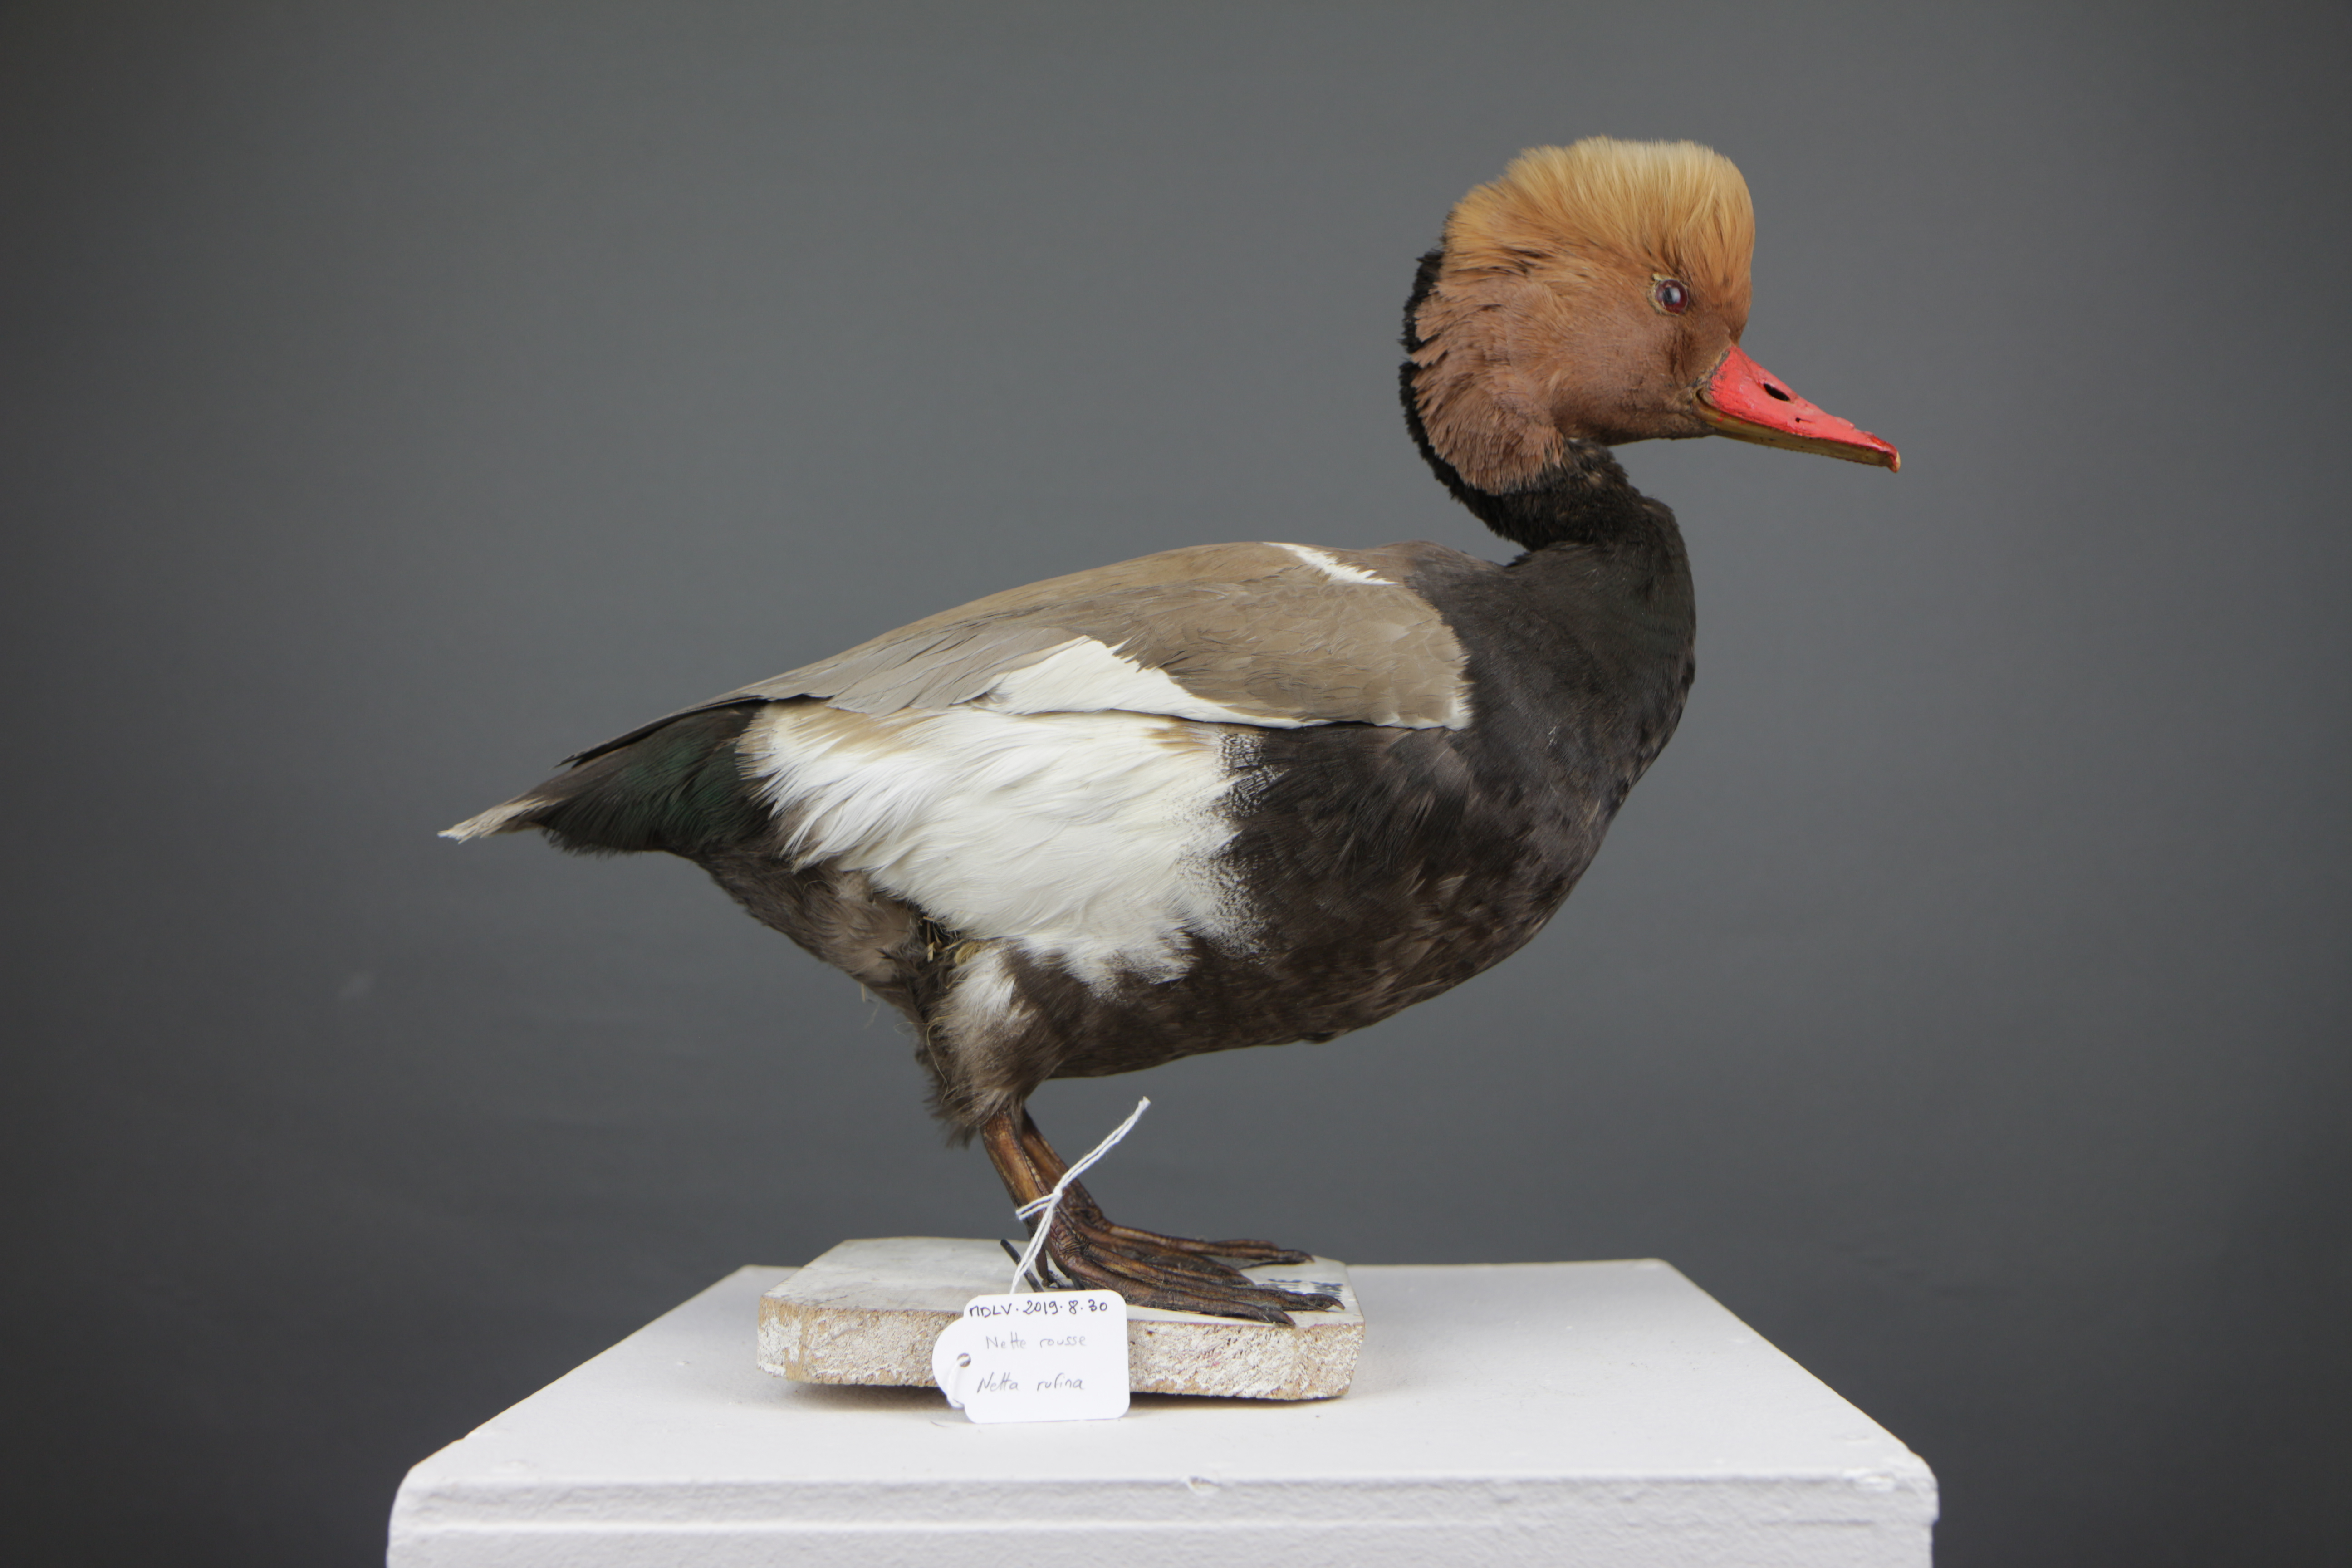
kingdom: Animalia
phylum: Chordata
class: Aves
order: Anseriformes
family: Anatidae
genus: Netta
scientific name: Netta rufina
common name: Red-crested pochard
